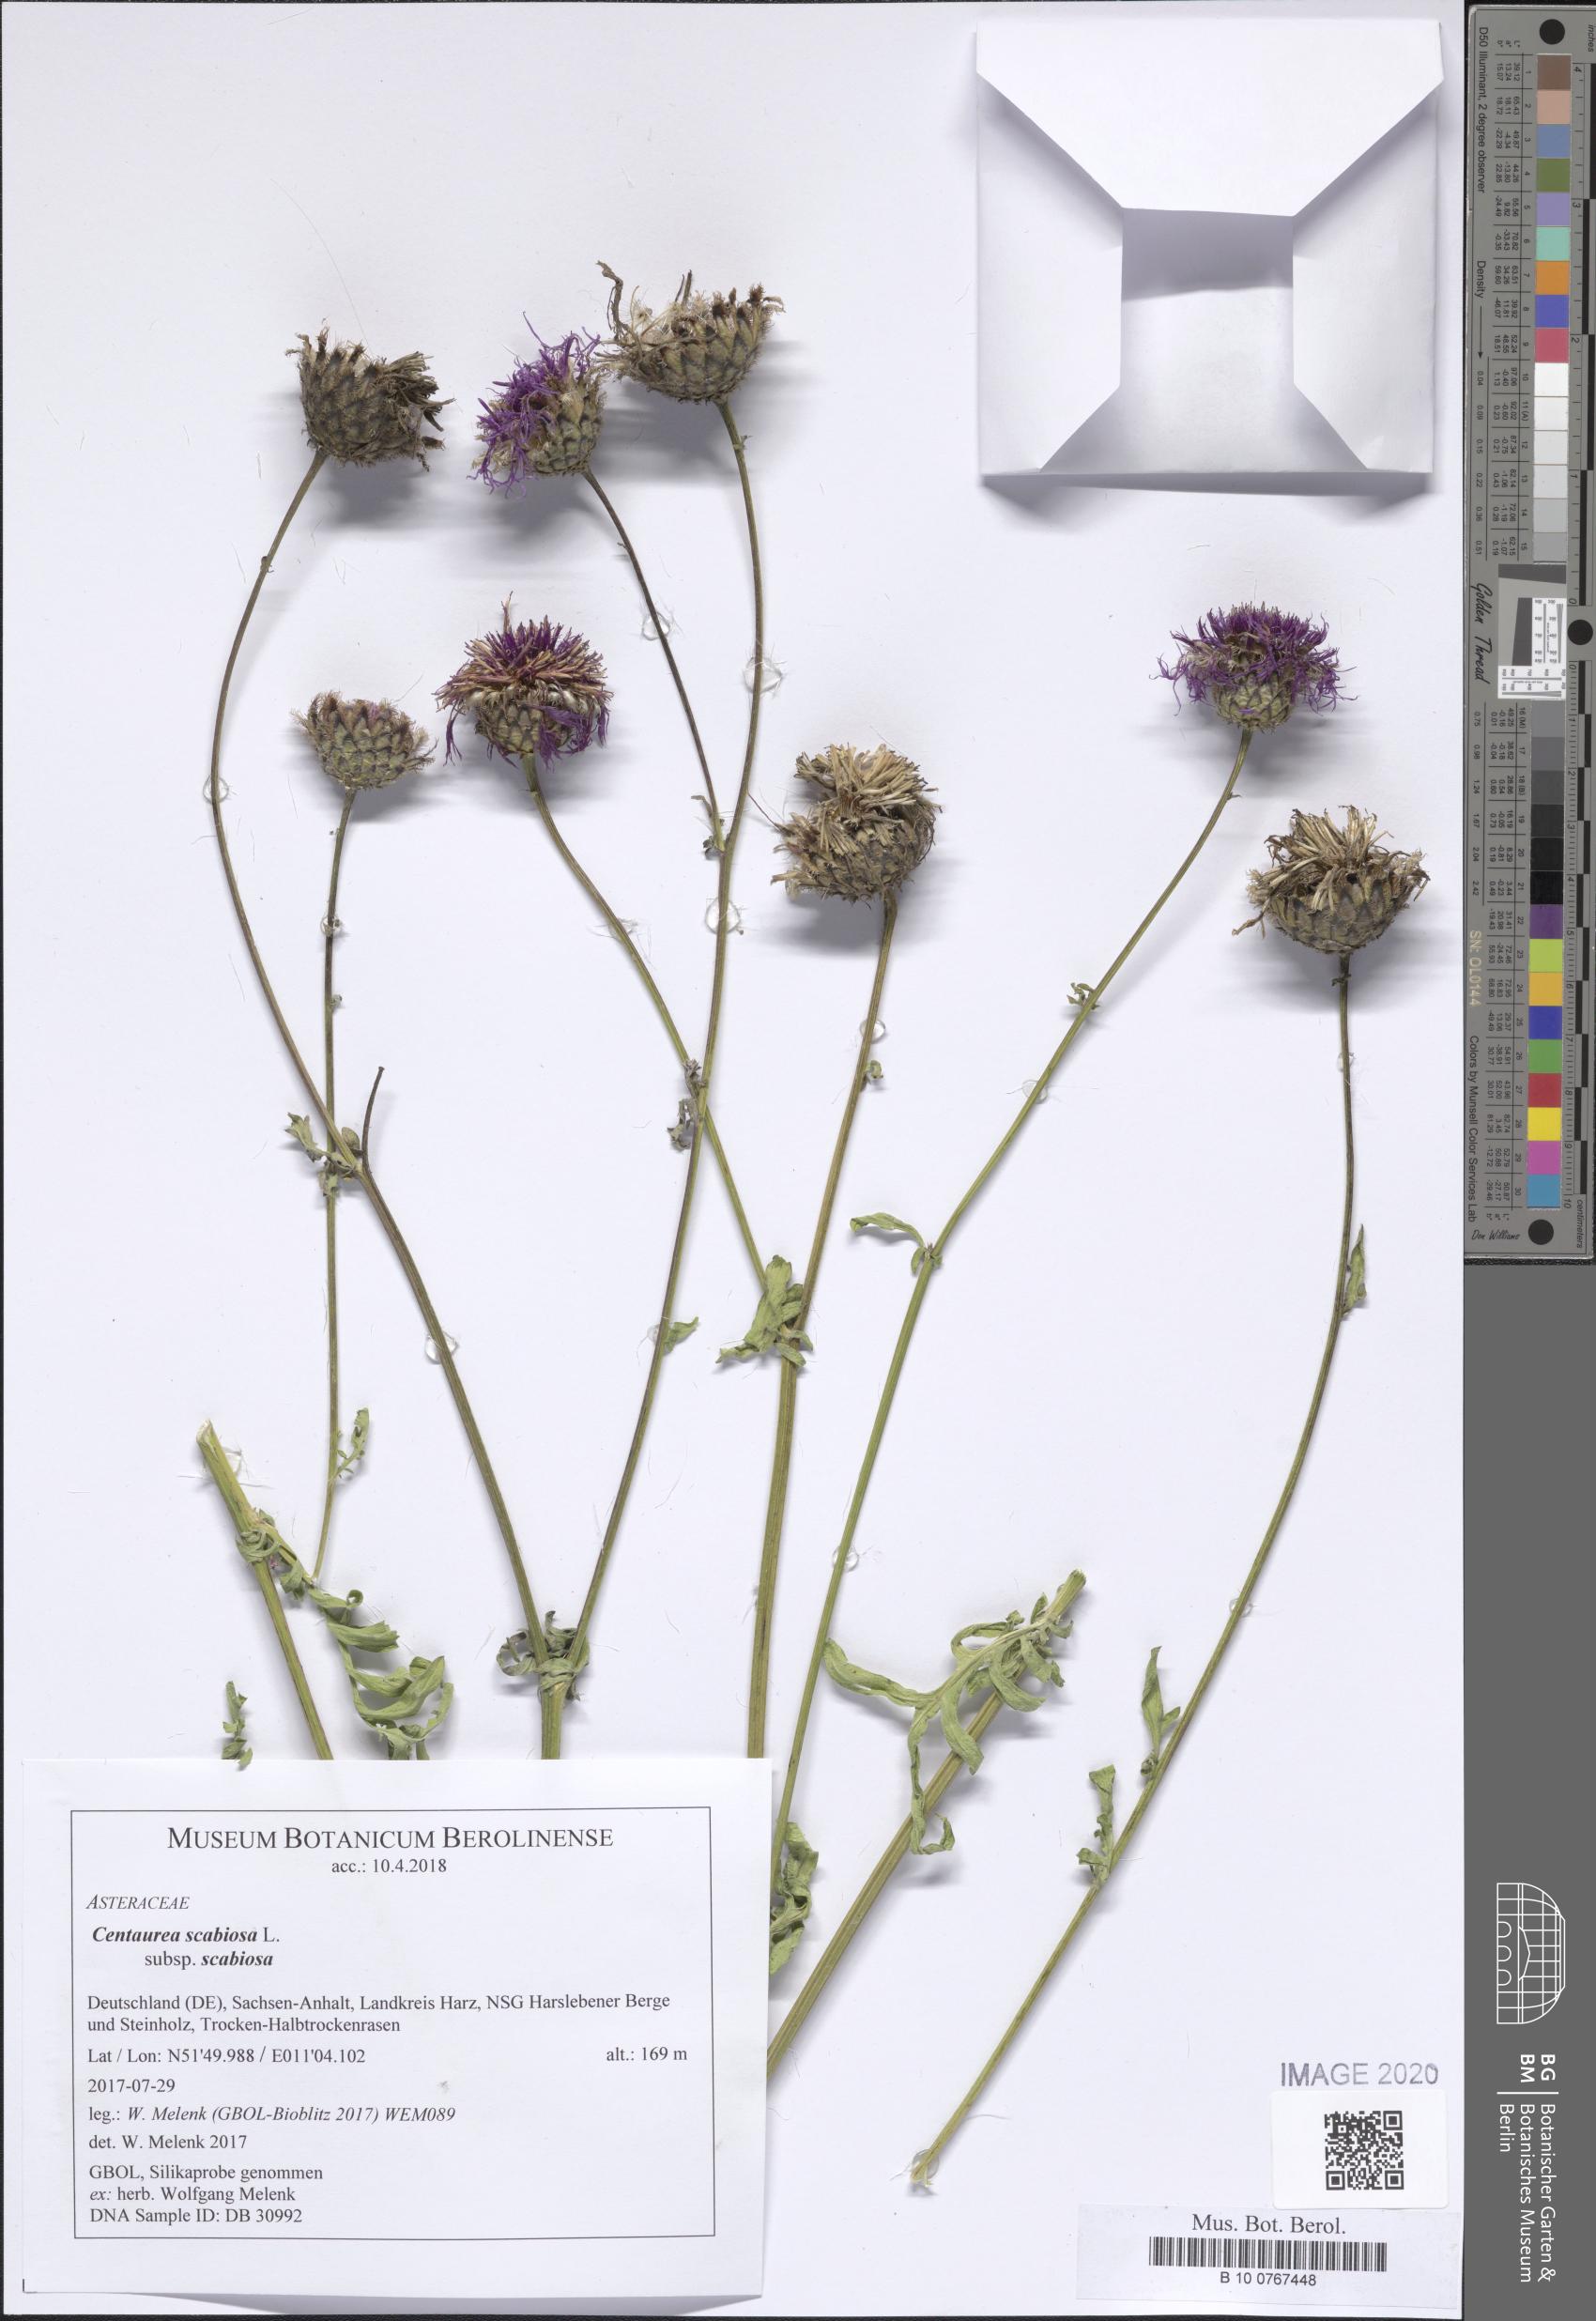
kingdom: Plantae
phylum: Tracheophyta
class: Magnoliopsida
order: Asterales
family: Asteraceae
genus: Centaurea
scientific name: Centaurea scabiosa
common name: Greater knapweed
